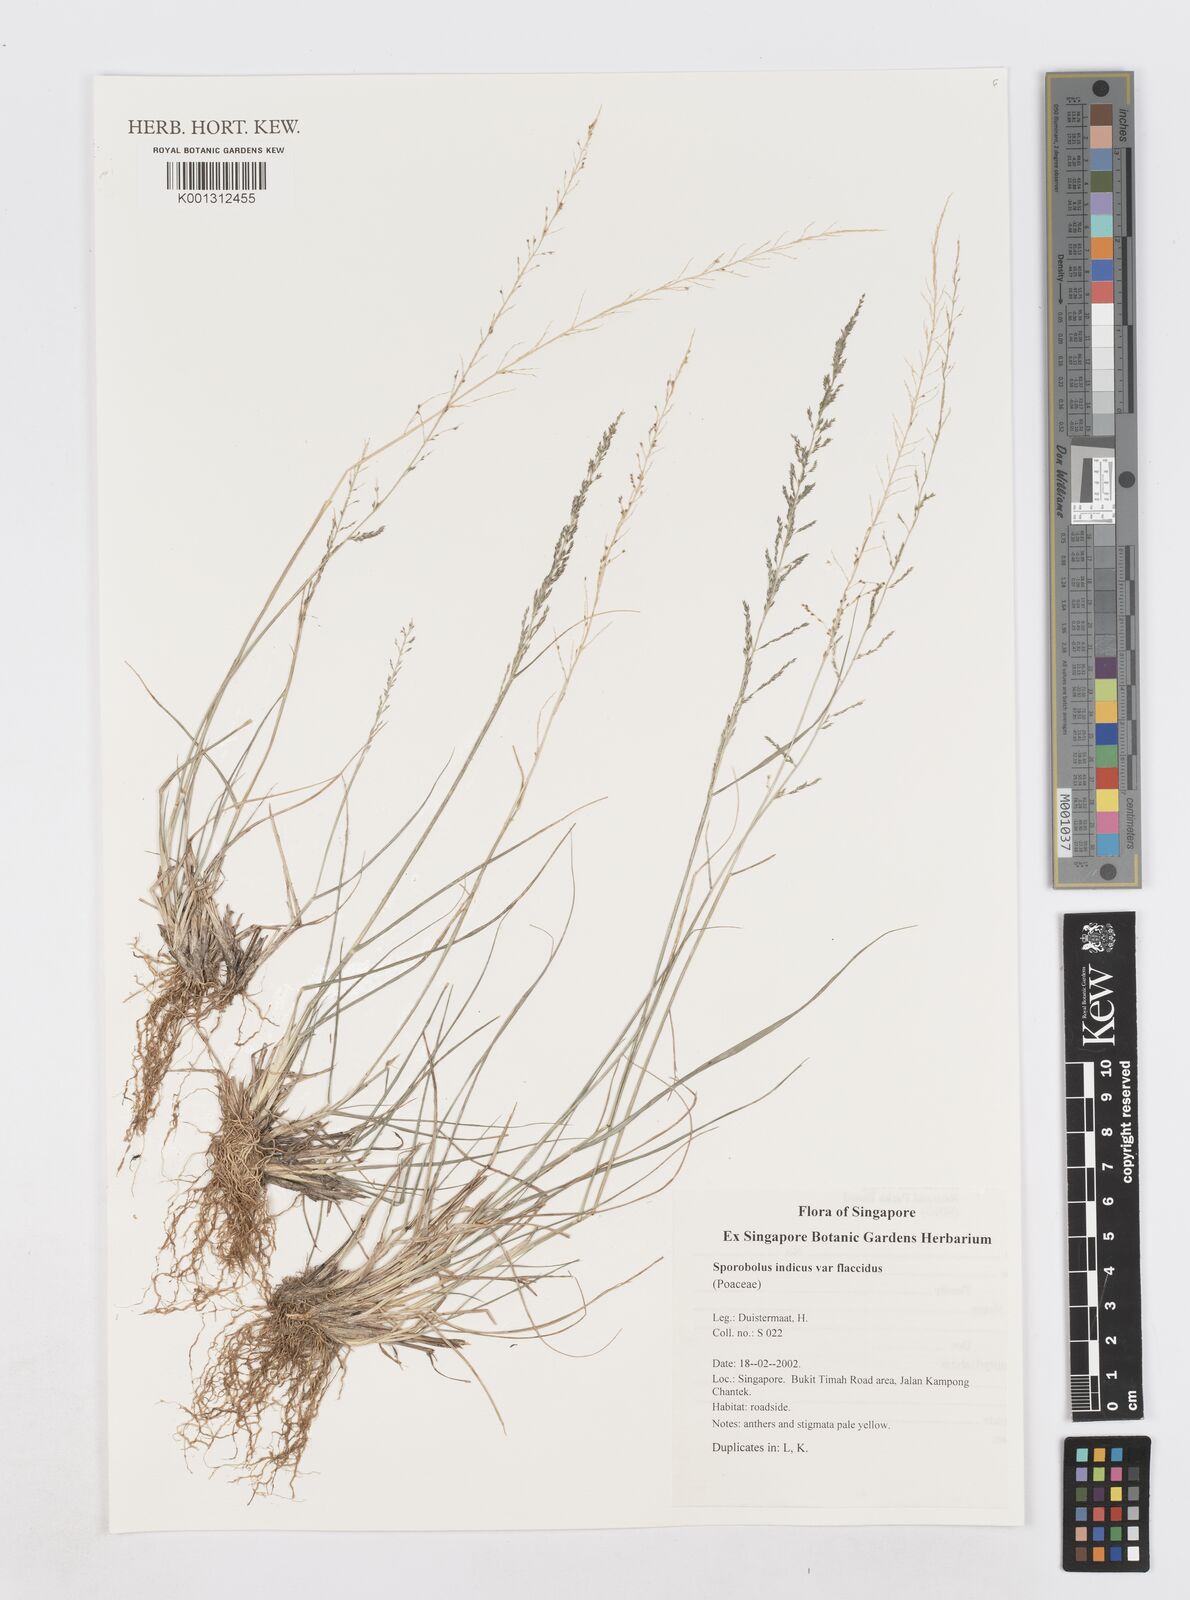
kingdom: Plantae
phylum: Tracheophyta
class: Liliopsida
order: Poales
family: Poaceae
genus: Sporobolus
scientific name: Sporobolus diandrus
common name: Tussock dropseed
